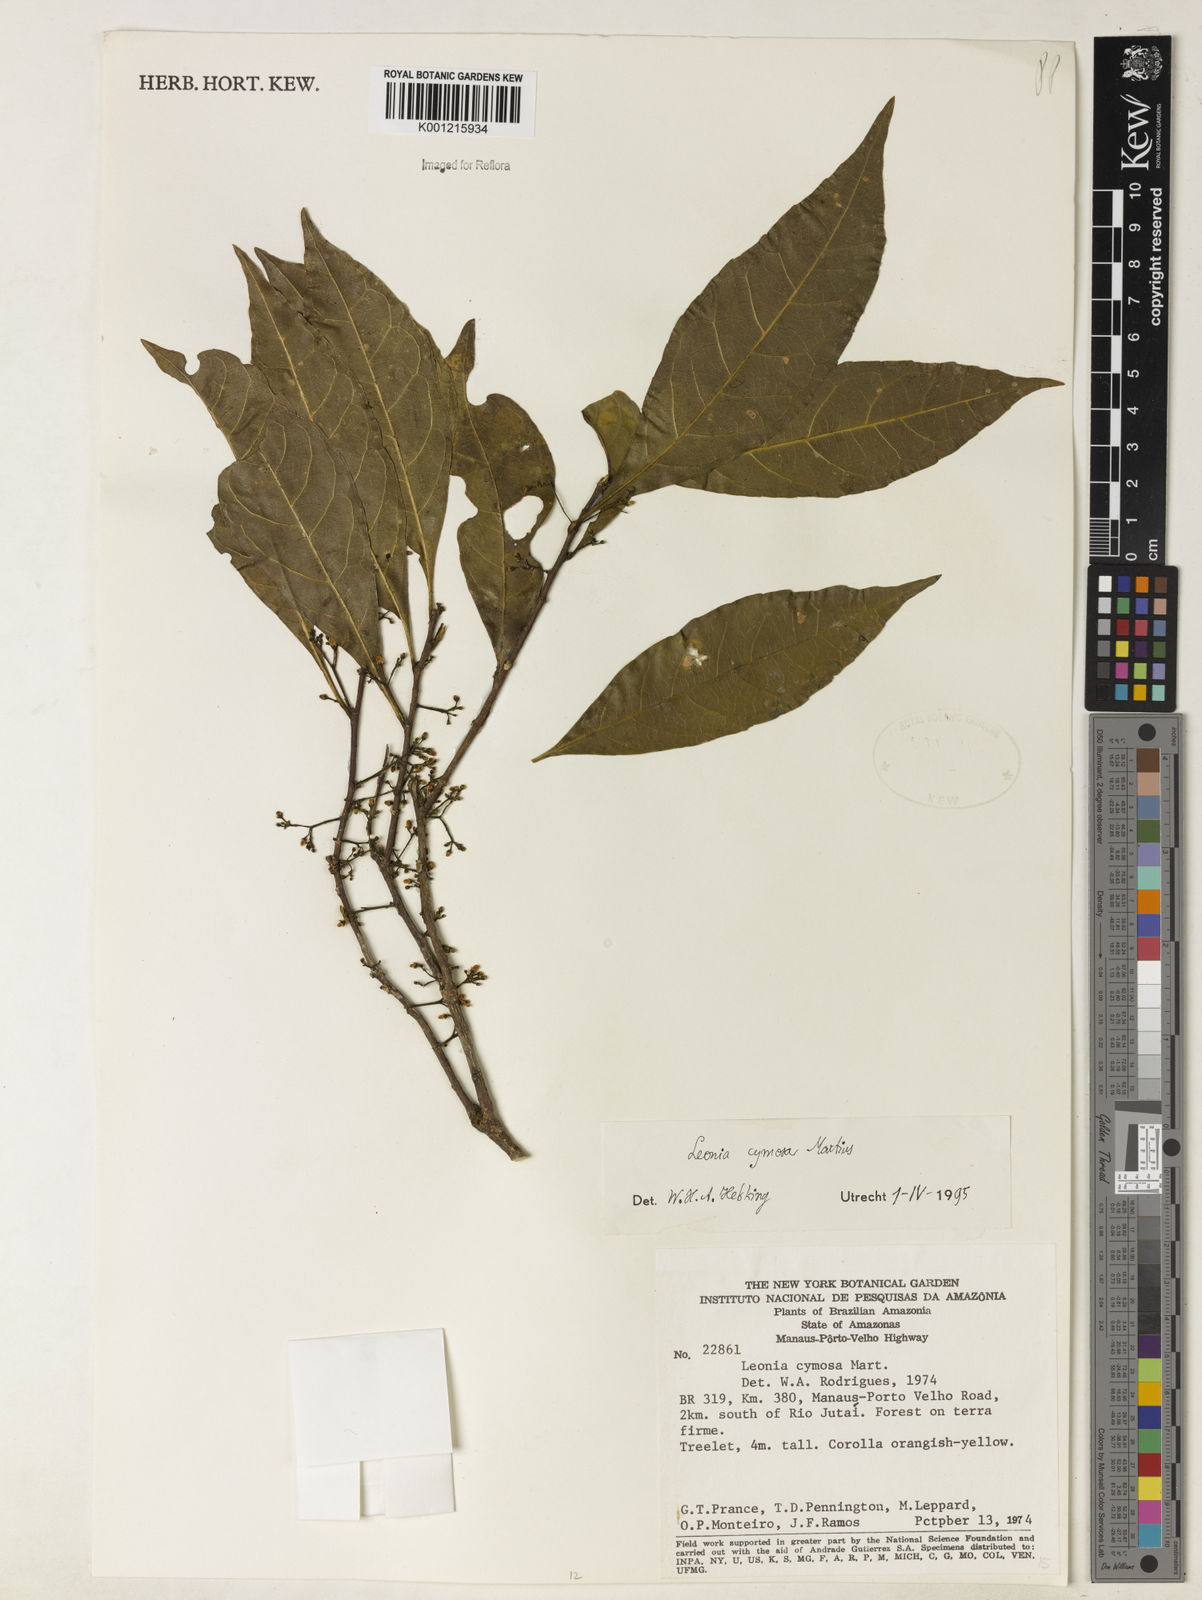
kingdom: Plantae
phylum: Tracheophyta
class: Magnoliopsida
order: Malpighiales
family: Violaceae
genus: Leonia
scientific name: Leonia cymosa
